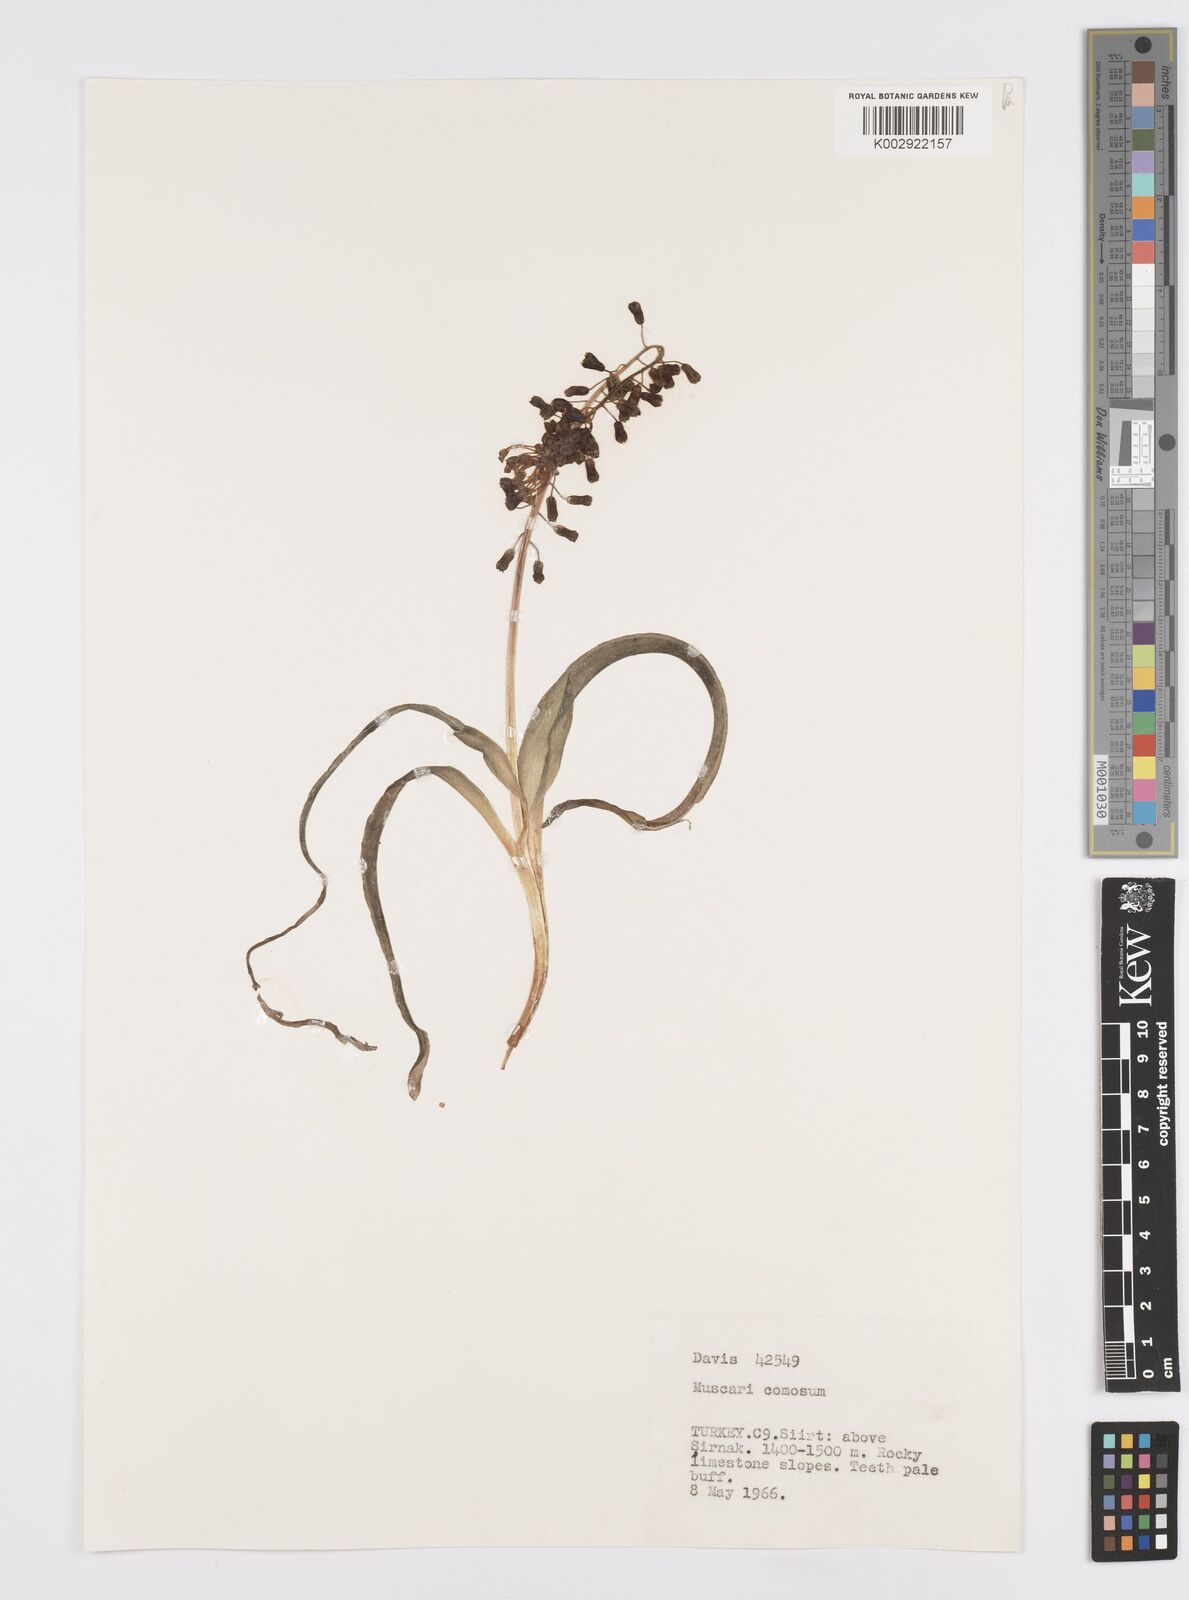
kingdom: Plantae
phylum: Tracheophyta
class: Liliopsida
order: Asparagales
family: Asparagaceae
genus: Muscari
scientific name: Muscari comosum
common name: Tassel hyacinth
